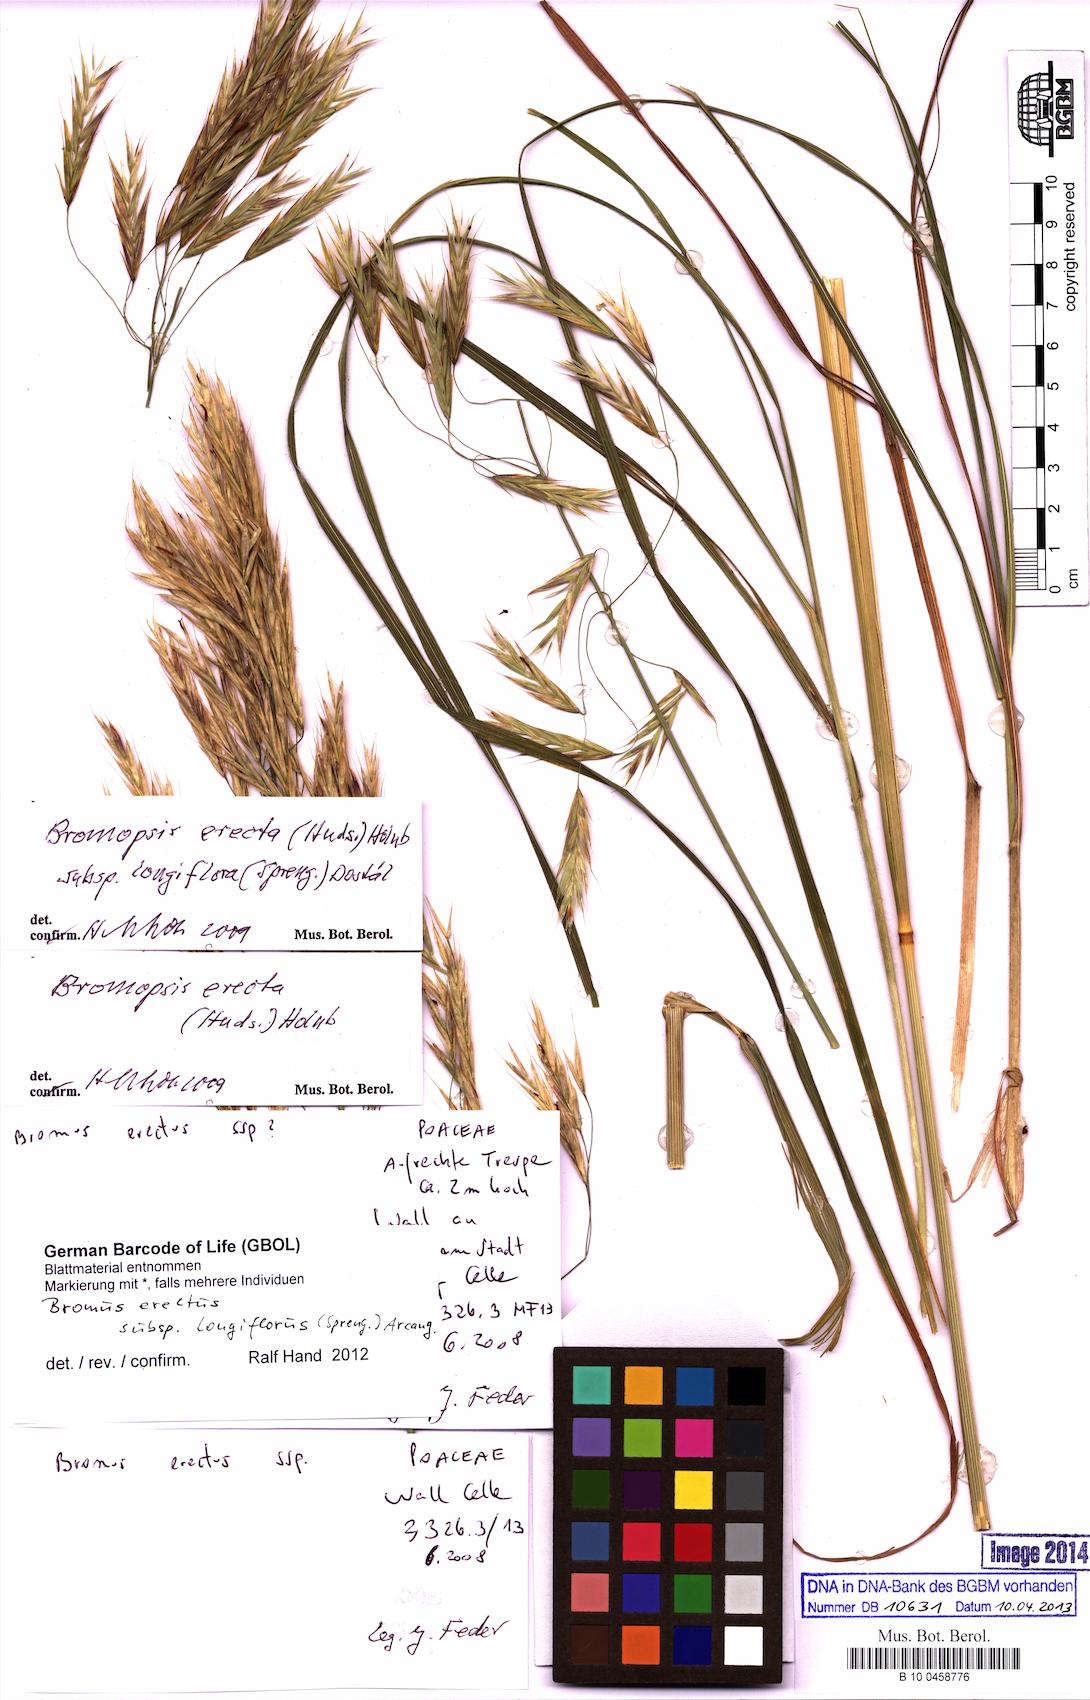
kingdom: Plantae
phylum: Tracheophyta
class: Liliopsida
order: Poales
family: Poaceae
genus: Bromus
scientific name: Bromus erectus
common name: Erect brome
